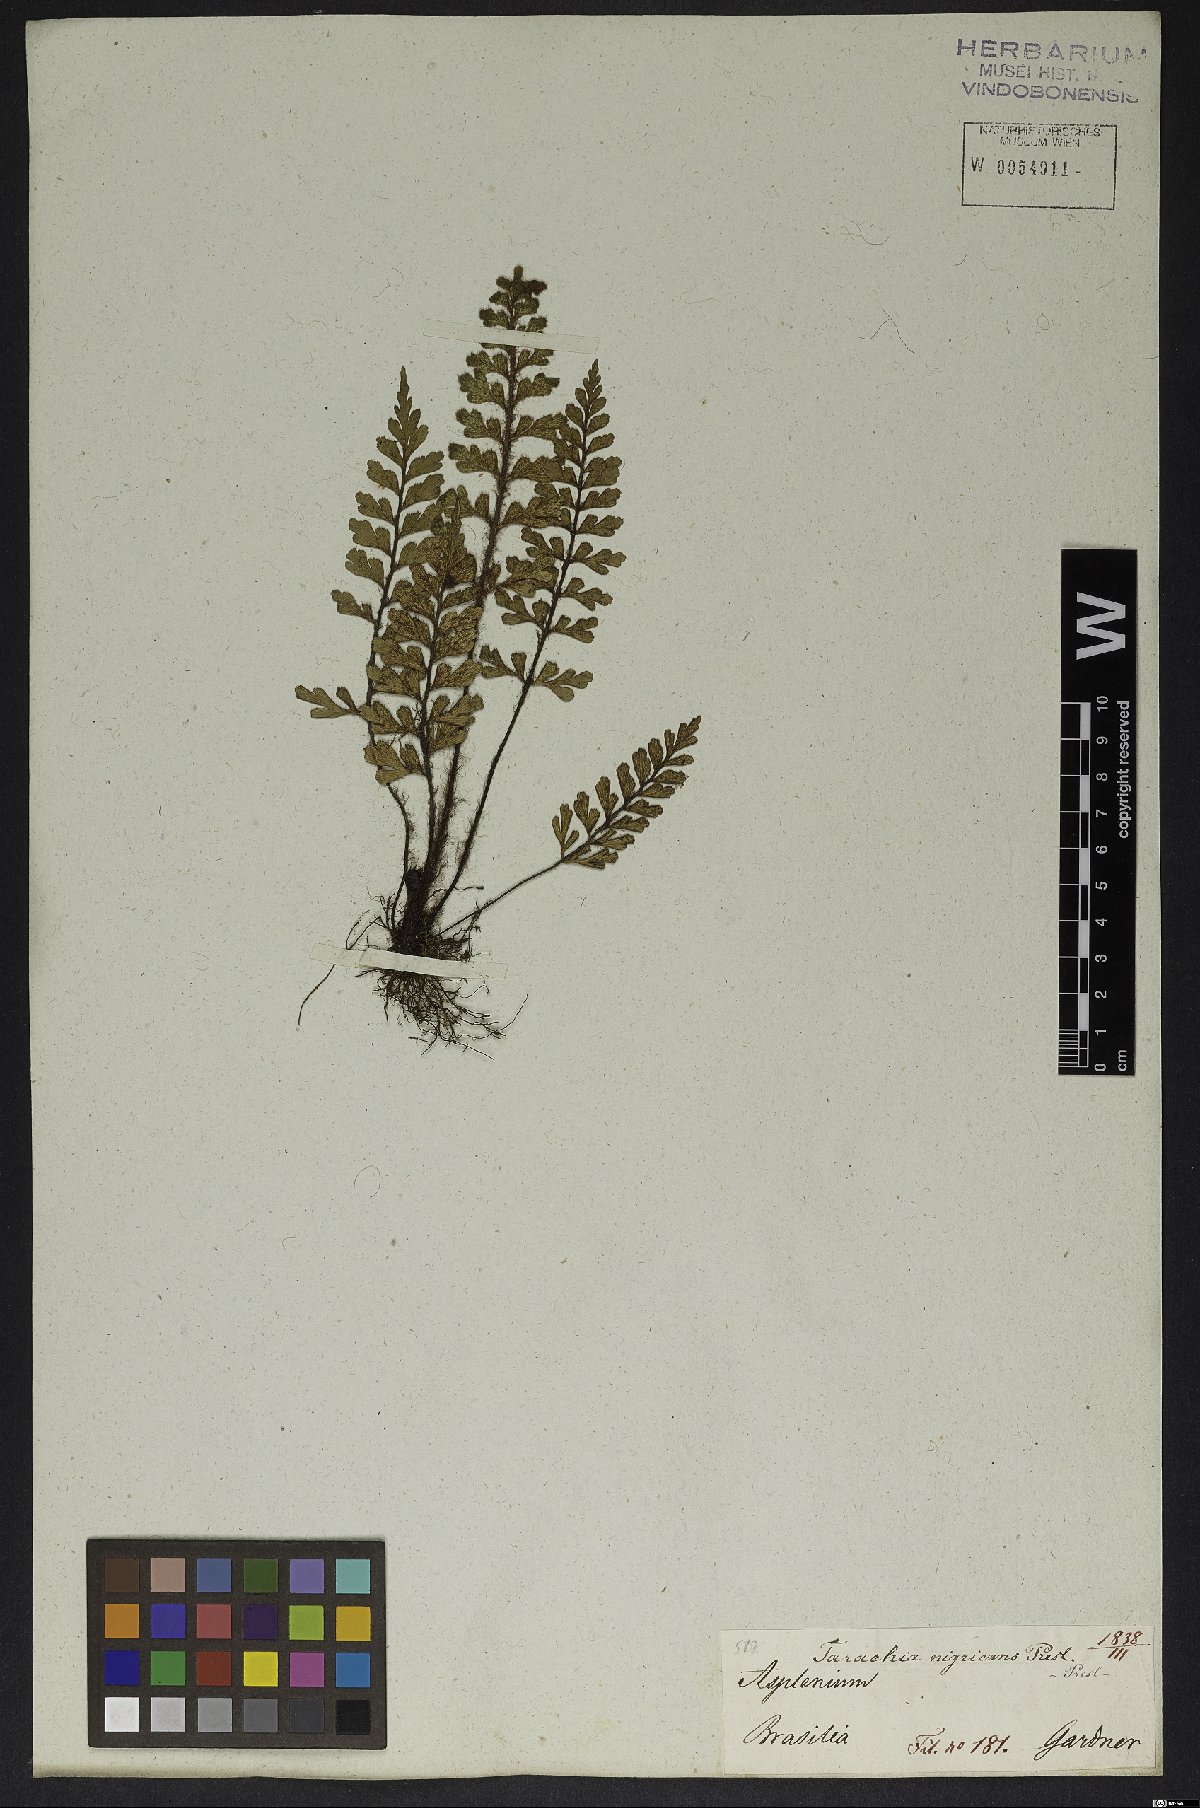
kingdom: Plantae
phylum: Tracheophyta
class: Polypodiopsida
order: Polypodiales
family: Aspleniaceae
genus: Asplenium
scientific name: Asplenium praemorsum
